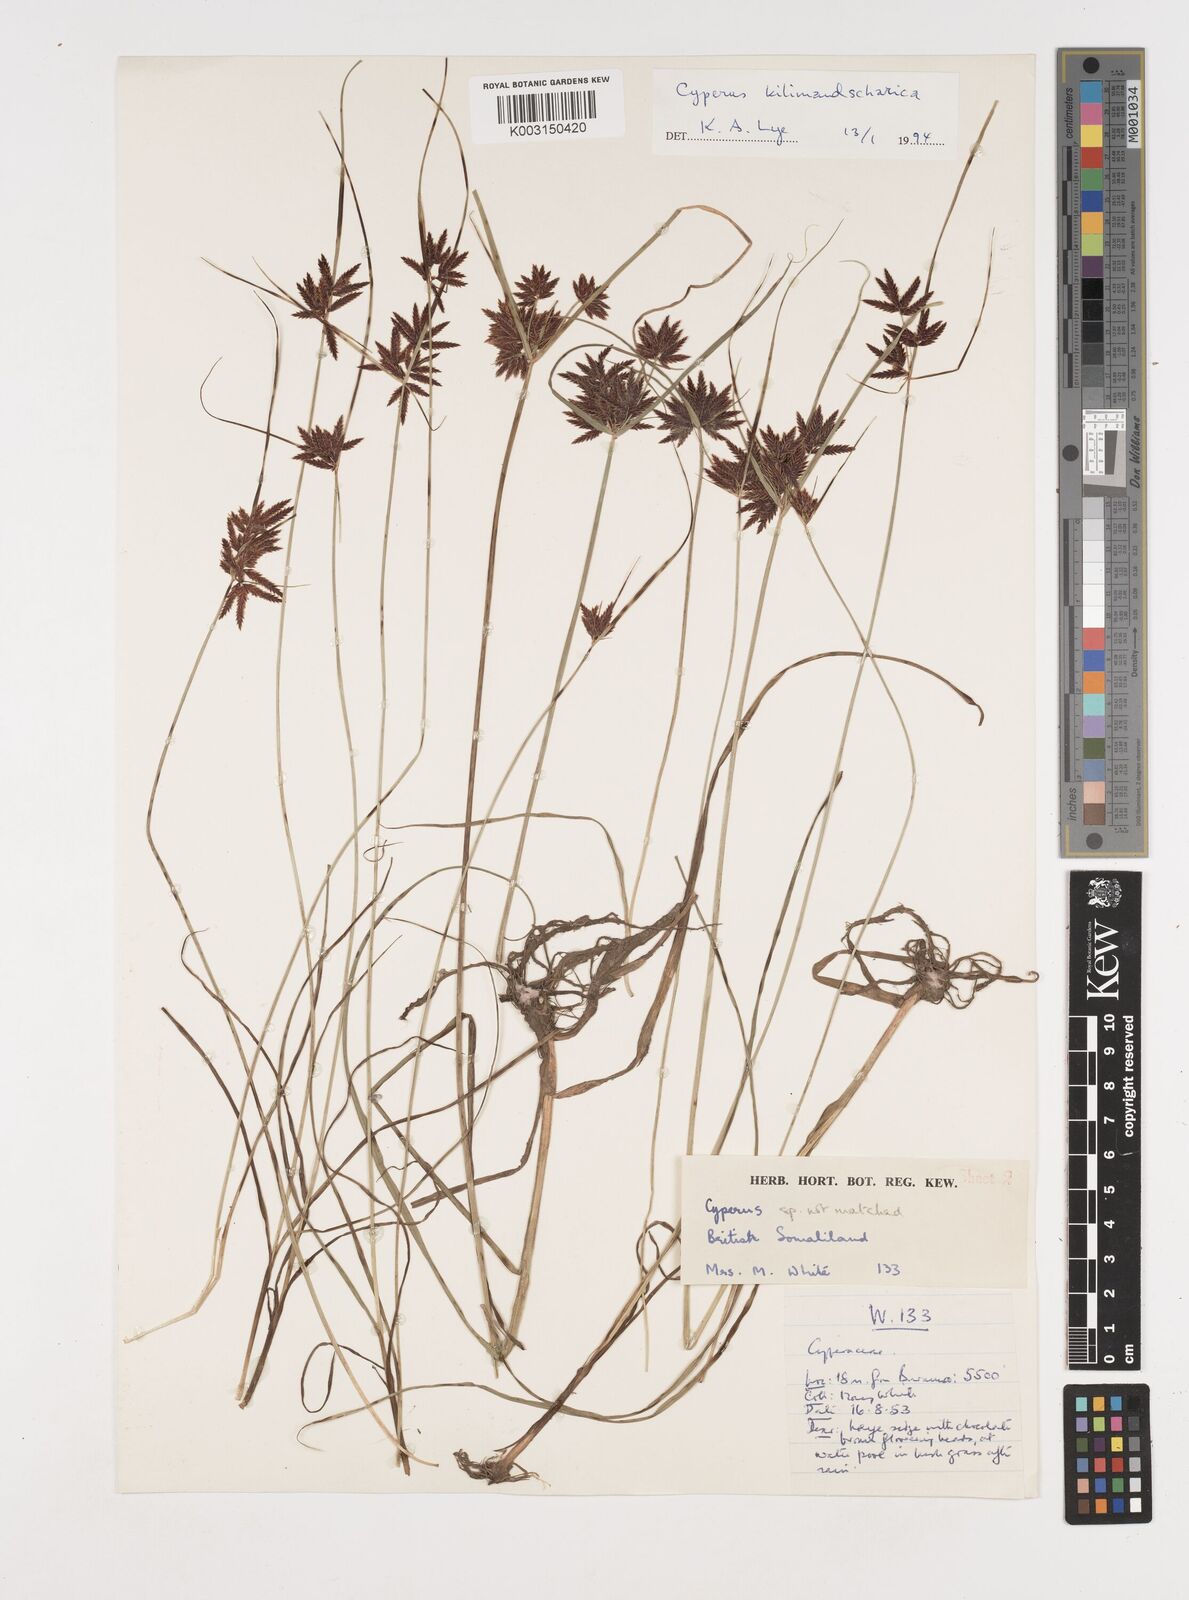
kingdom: Plantae
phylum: Tracheophyta
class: Liliopsida
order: Poales
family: Cyperaceae
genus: Cyperus
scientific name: Cyperus kilimandscharicus
